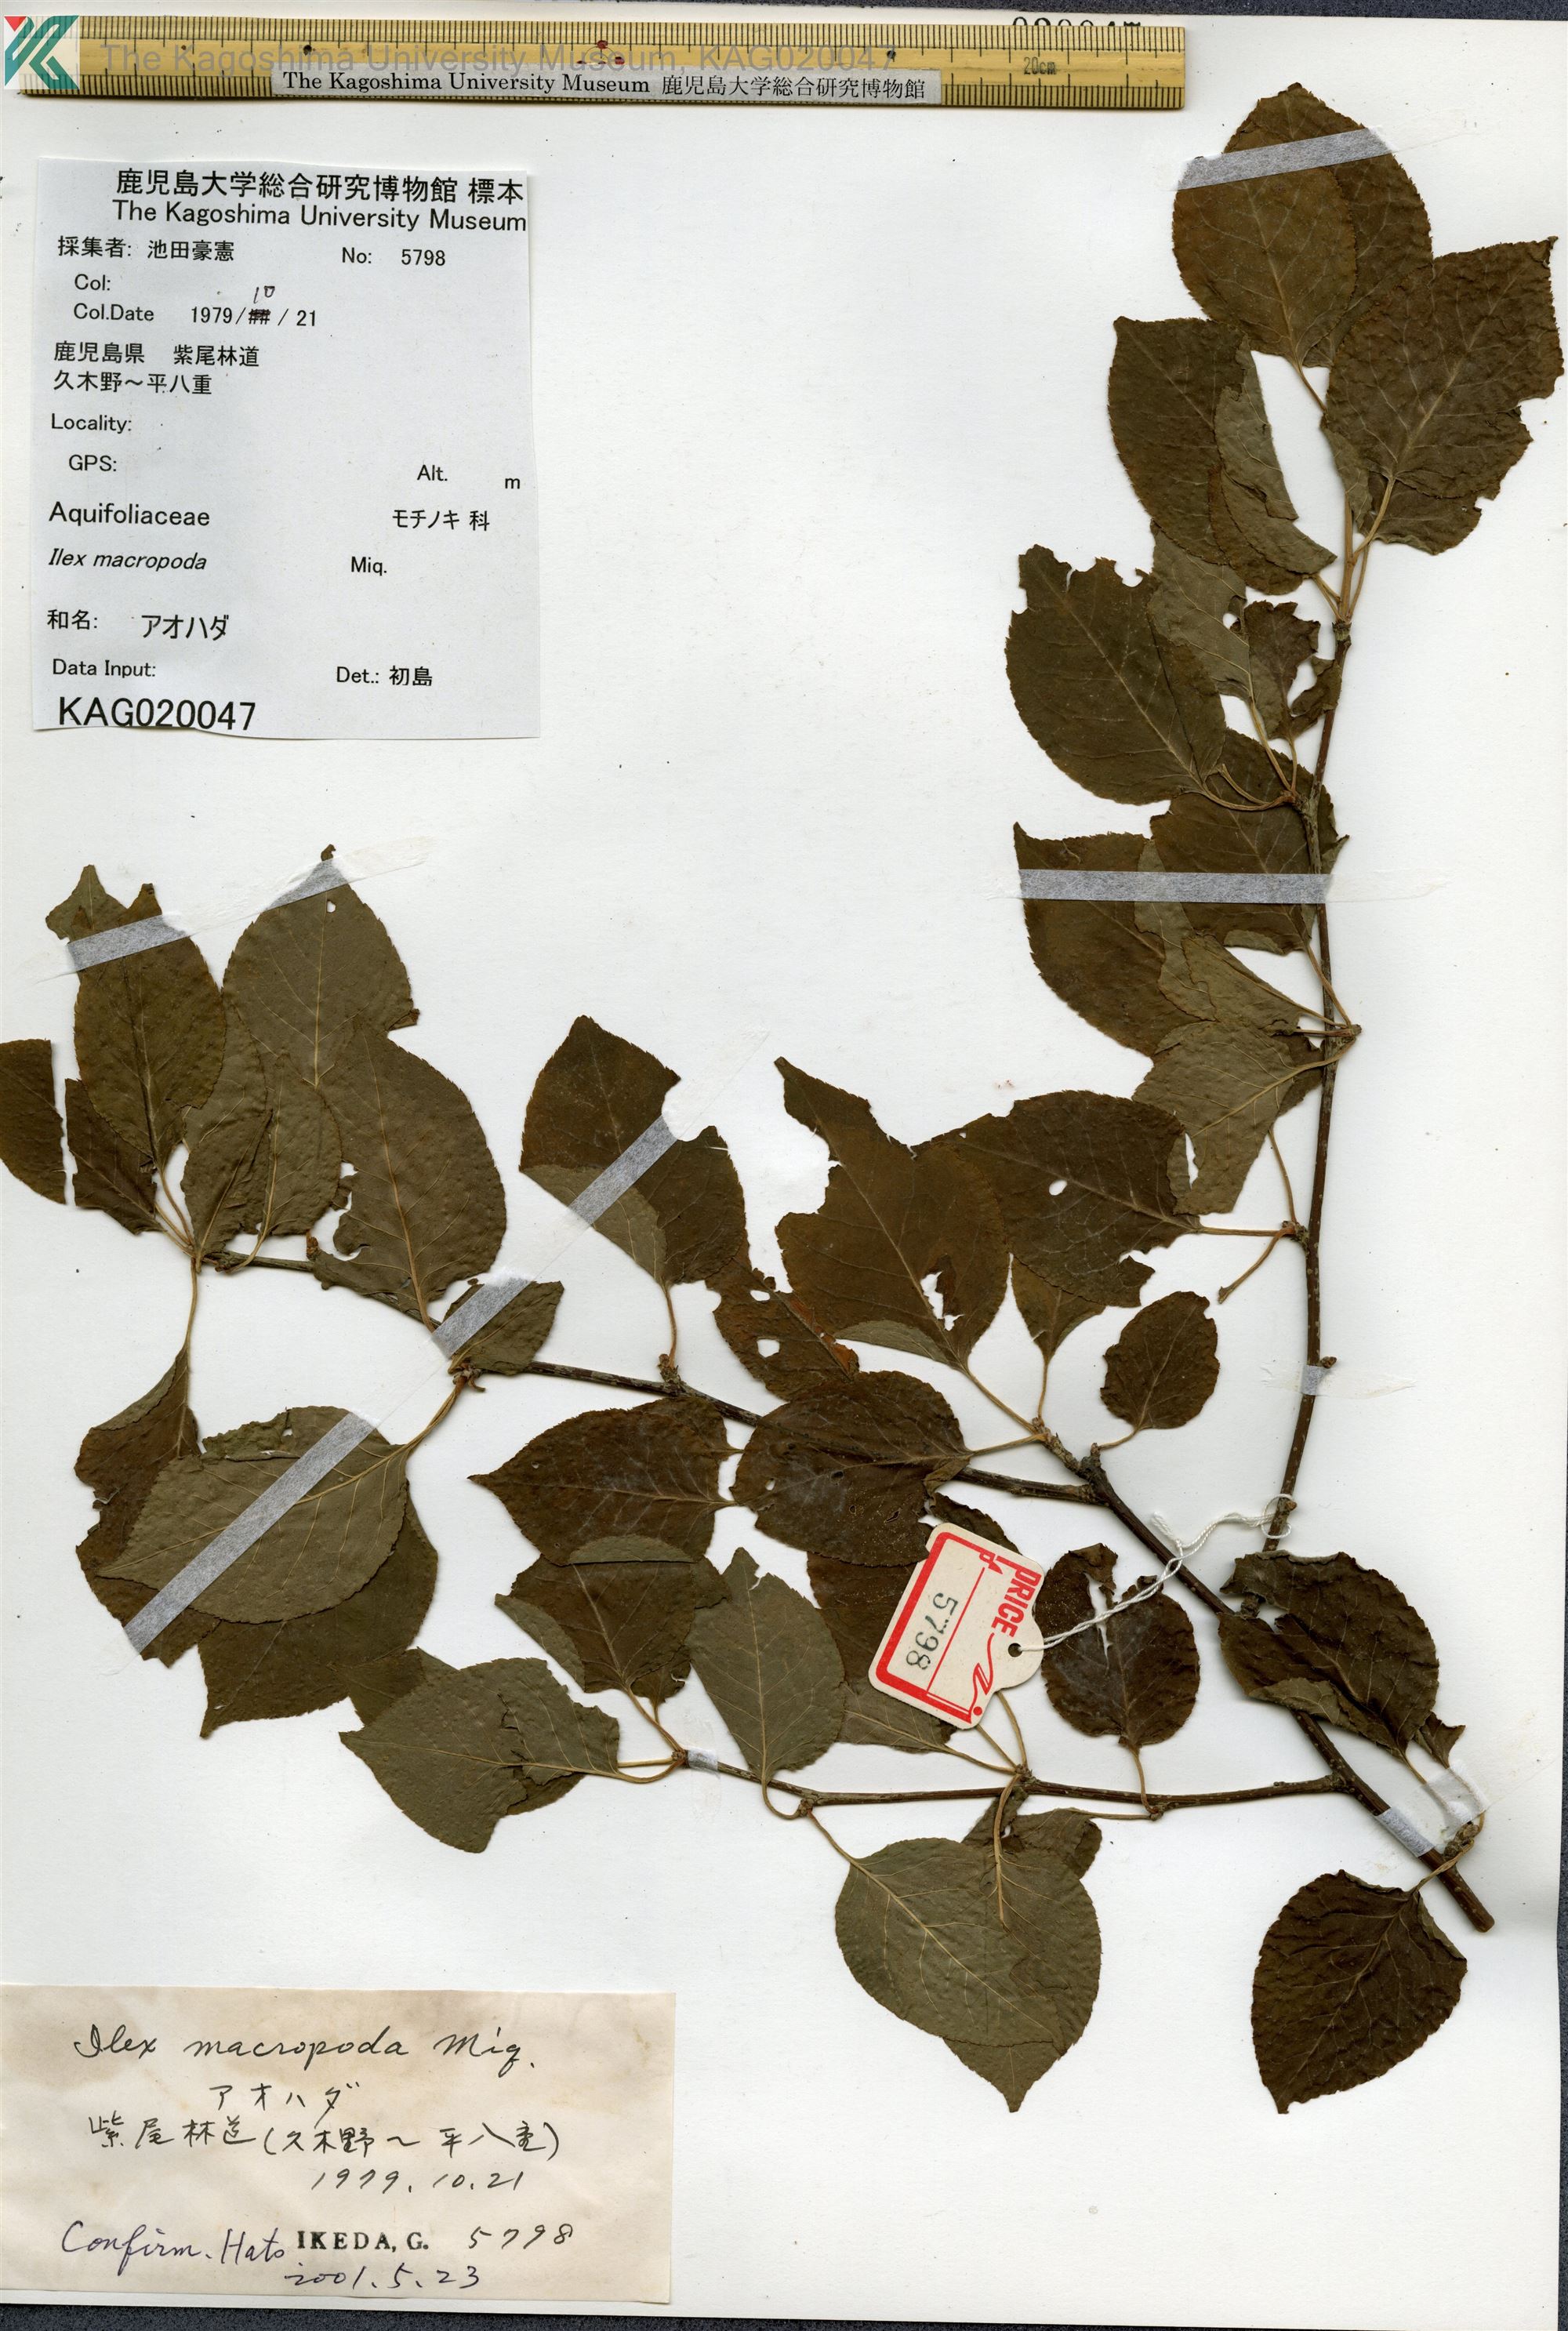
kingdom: Plantae
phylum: Tracheophyta
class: Magnoliopsida
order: Aquifoliales
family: Aquifoliaceae
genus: Ilex
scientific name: Ilex macropoda
